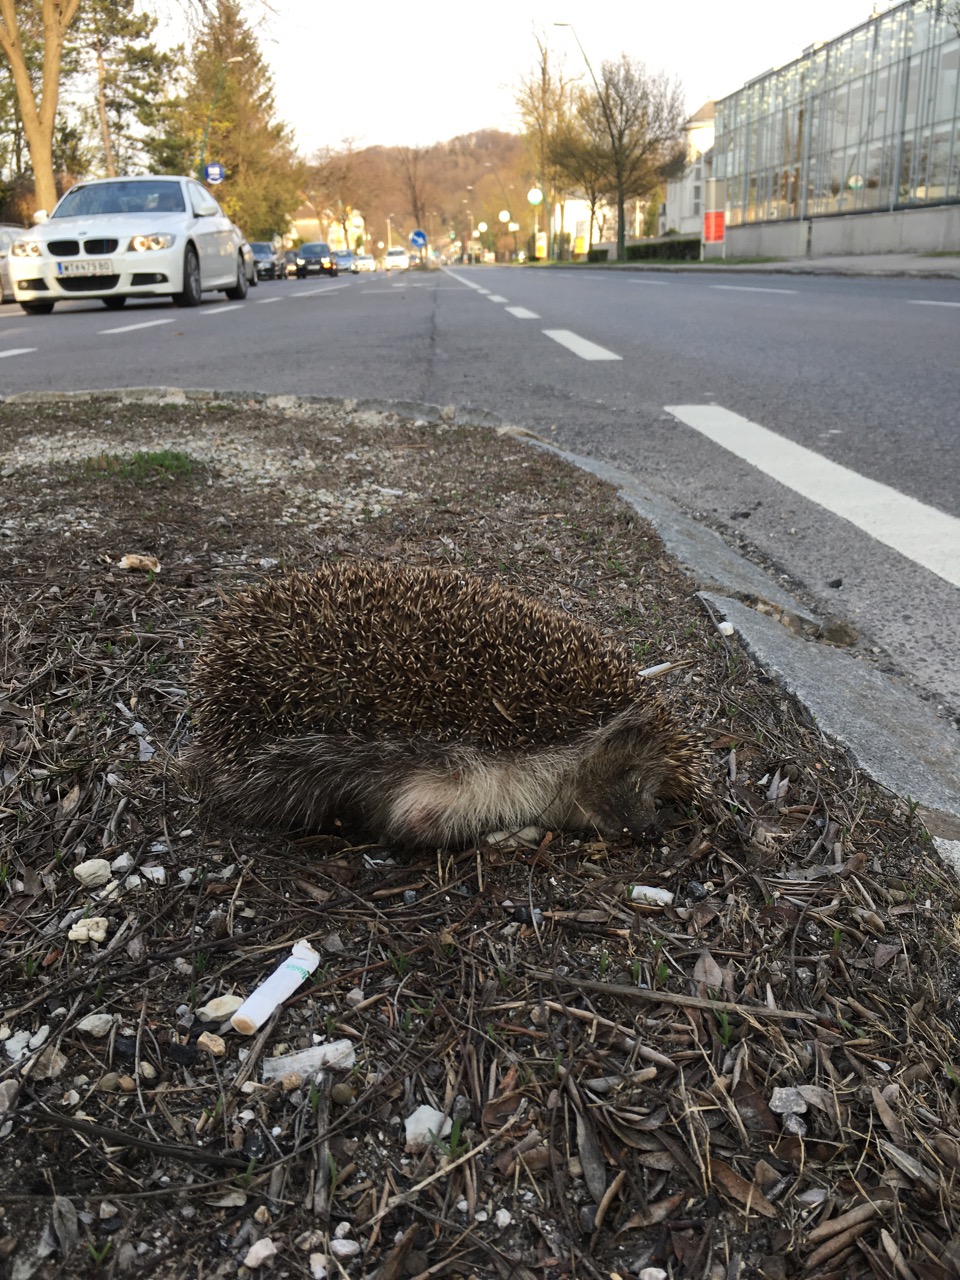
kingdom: Animalia
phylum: Chordata
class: Mammalia
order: Erinaceomorpha
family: Erinaceidae
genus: Erinaceus
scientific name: Erinaceus
